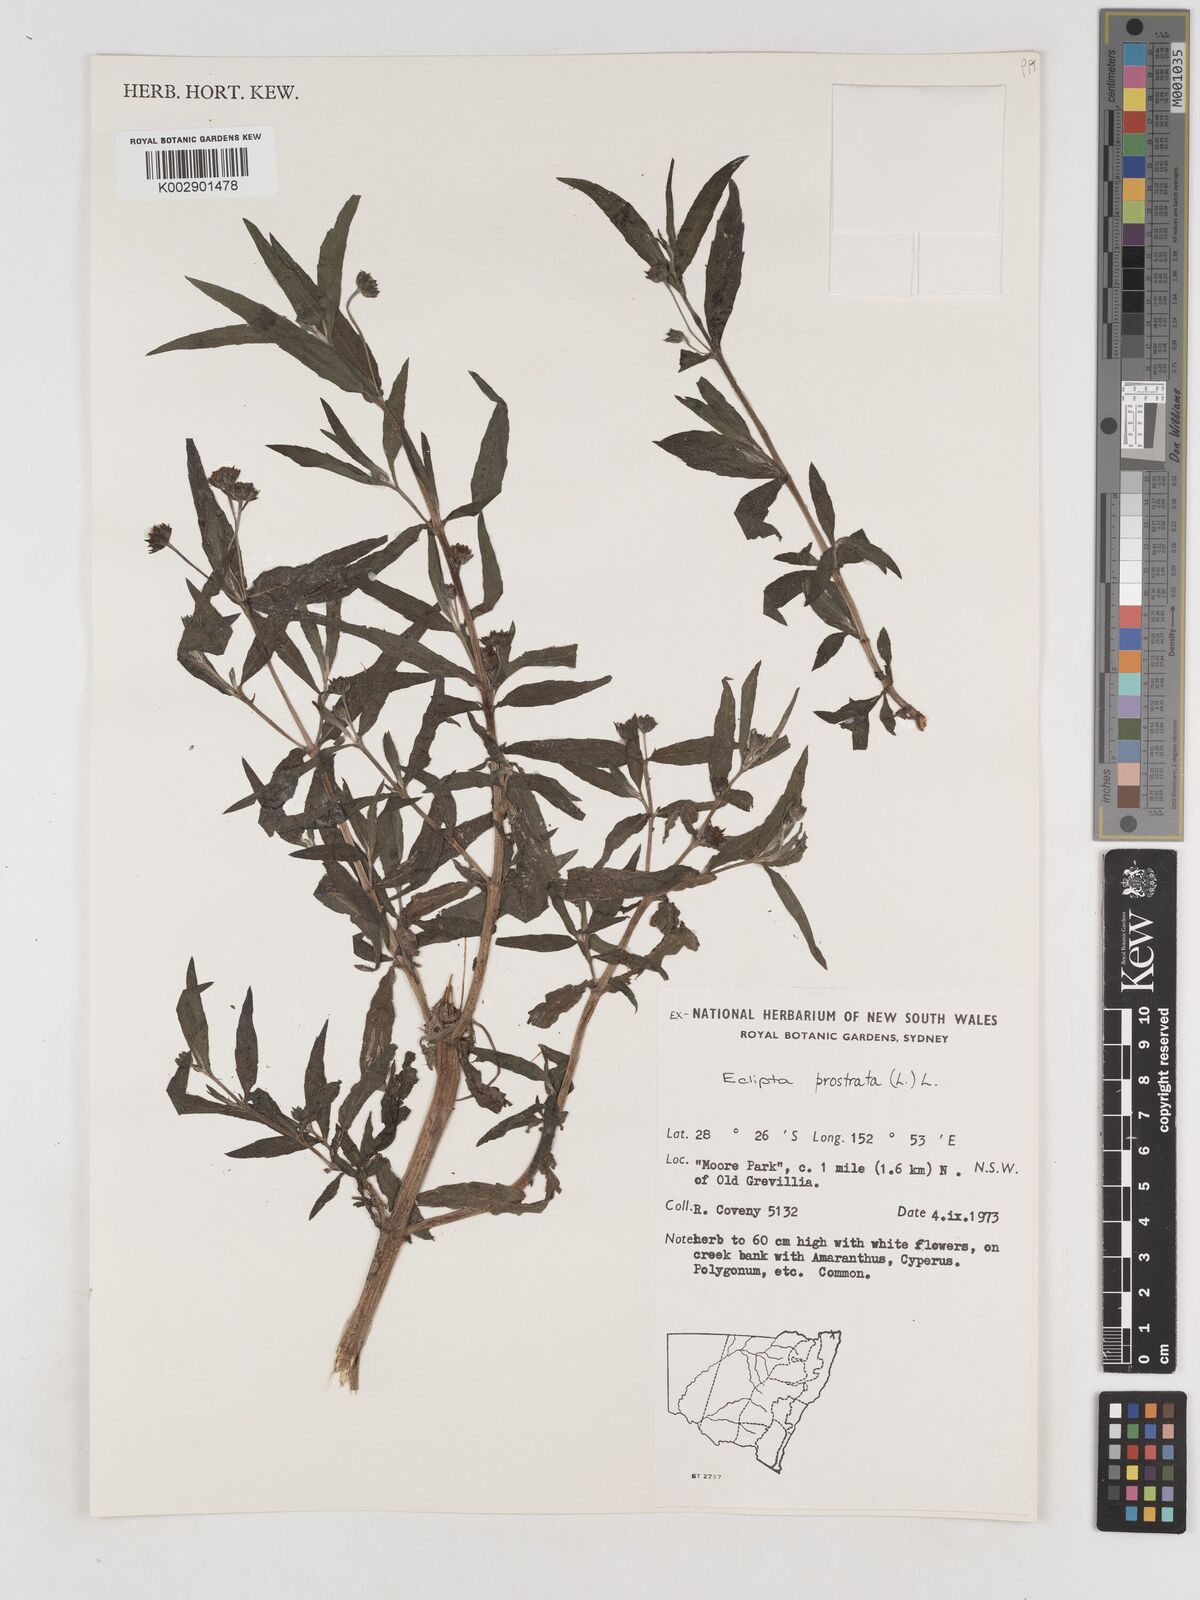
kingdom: Plantae
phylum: Tracheophyta
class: Magnoliopsida
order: Asterales
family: Asteraceae
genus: Eclipta
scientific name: Eclipta prostrata
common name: False daisy
